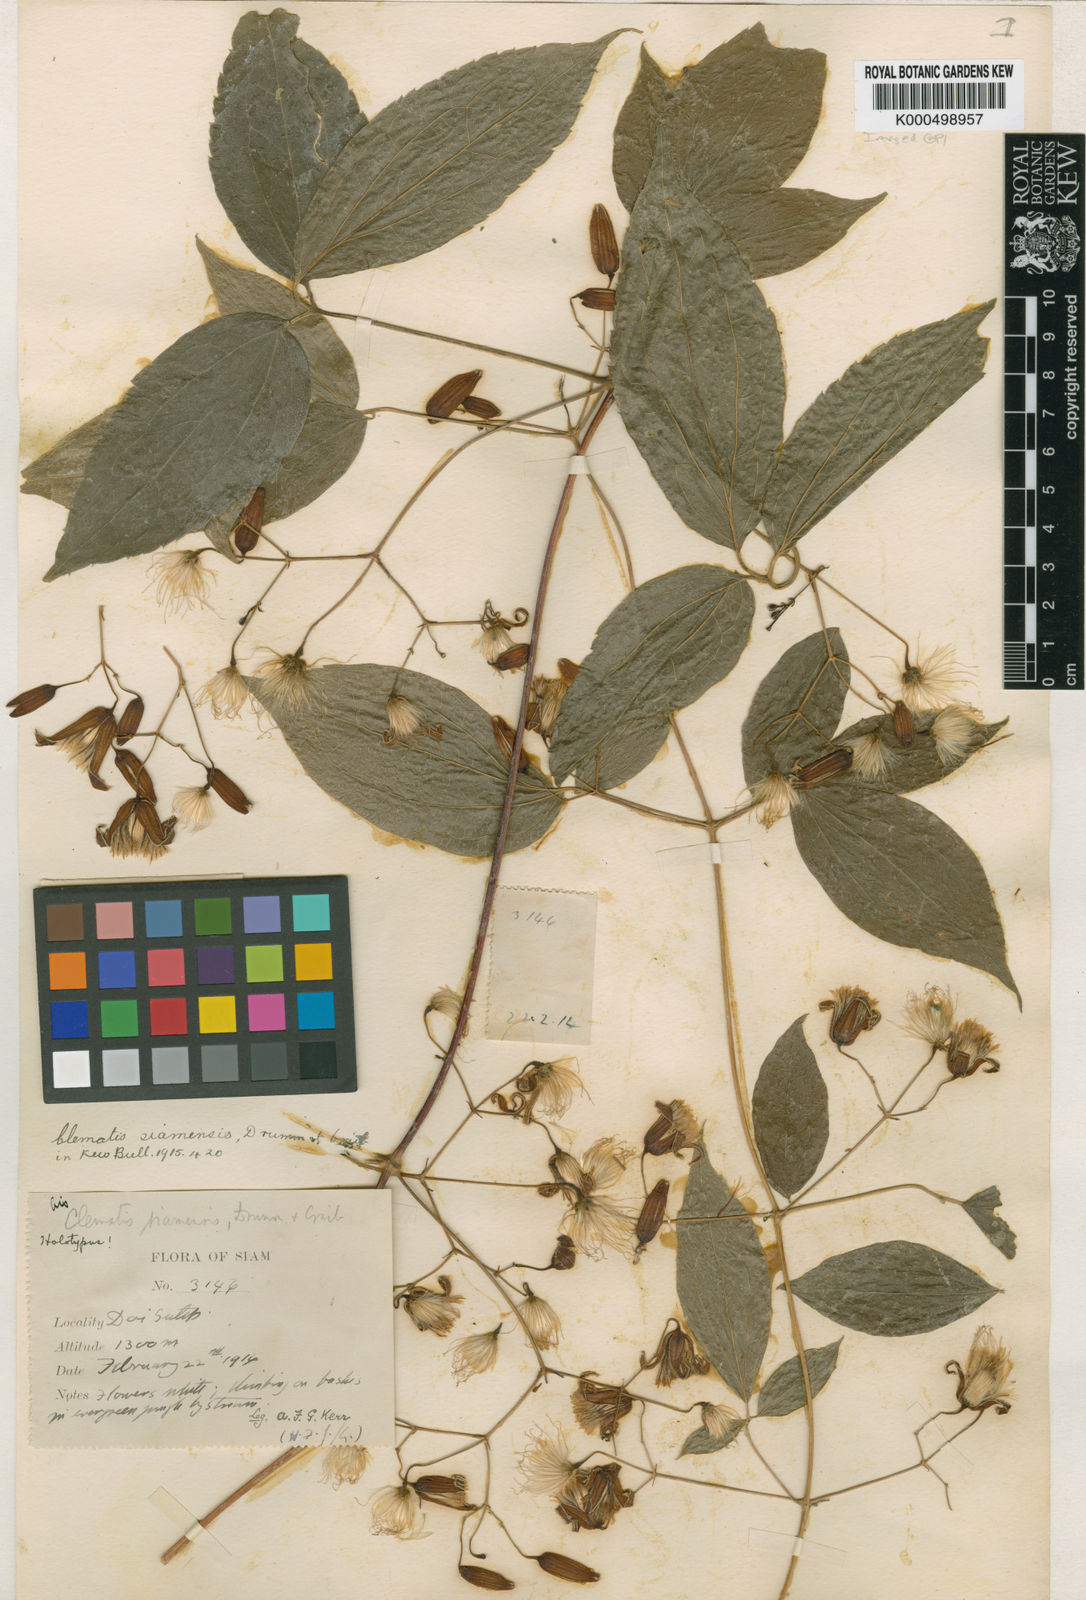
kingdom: Plantae
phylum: Tracheophyta
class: Magnoliopsida
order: Ranunculales
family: Ranunculaceae
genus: Clematis
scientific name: Clematis
